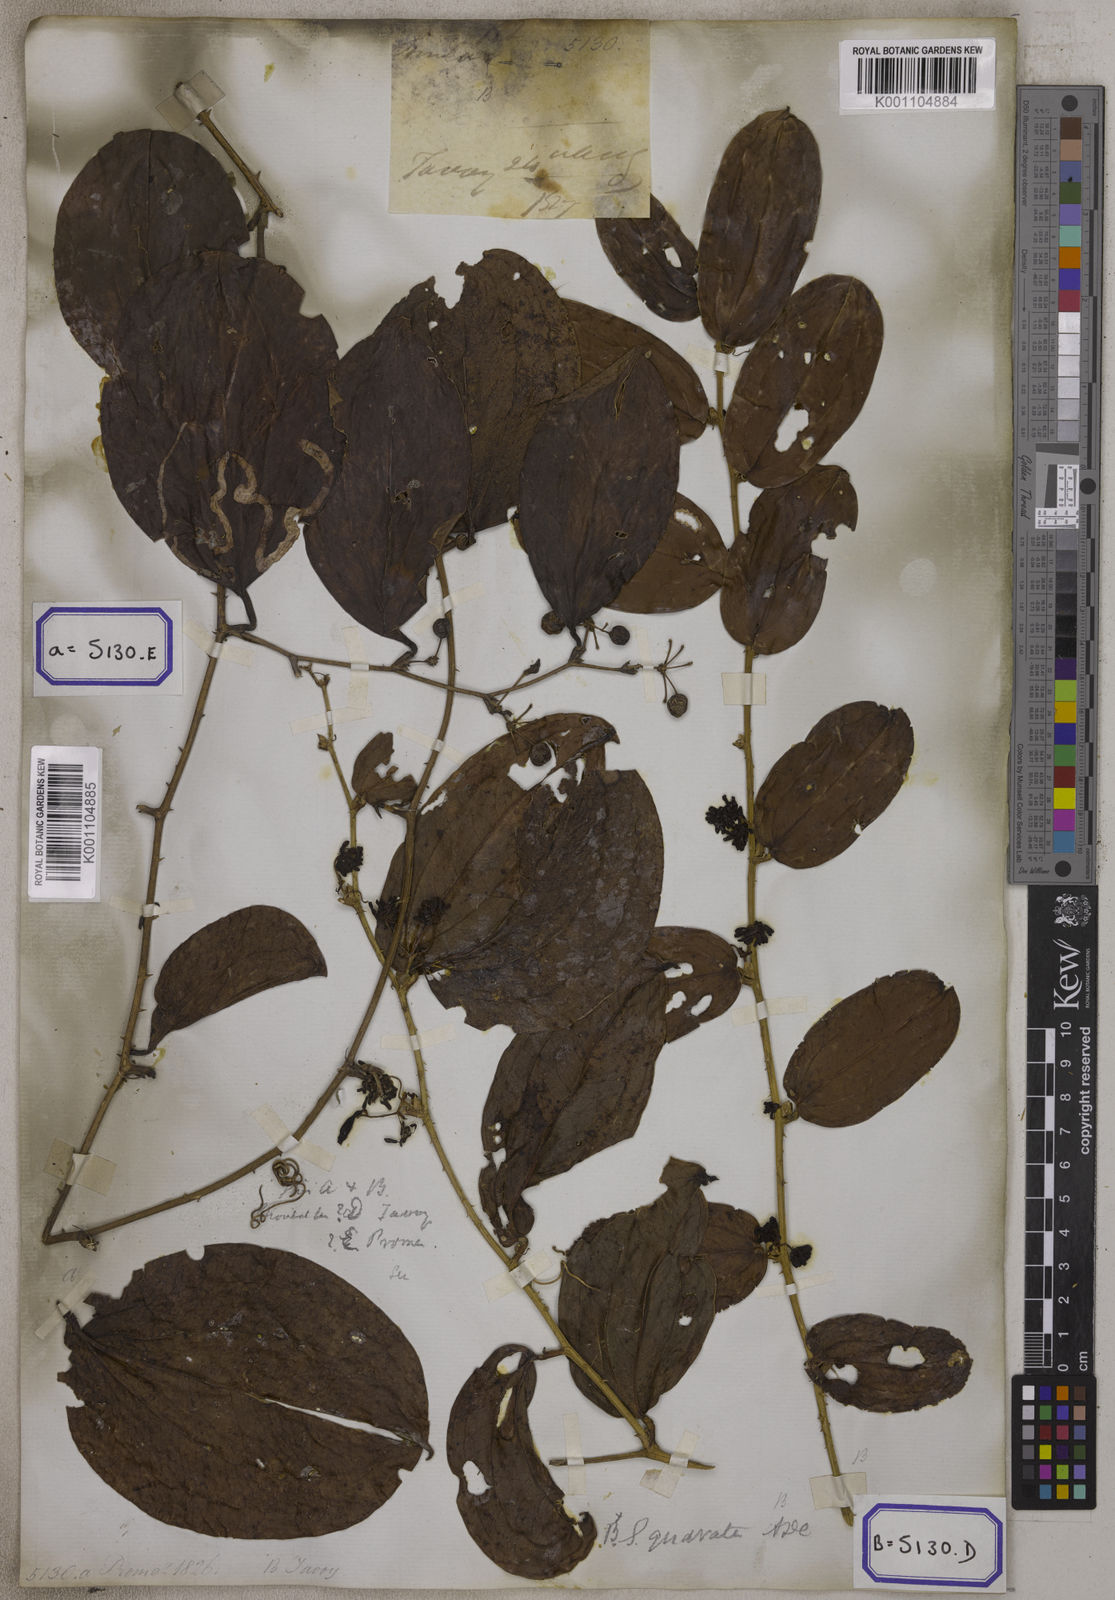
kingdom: Plantae
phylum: Tracheophyta
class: Liliopsida
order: Liliales
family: Smilacaceae
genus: Smilax
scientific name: Smilax zeylanica
